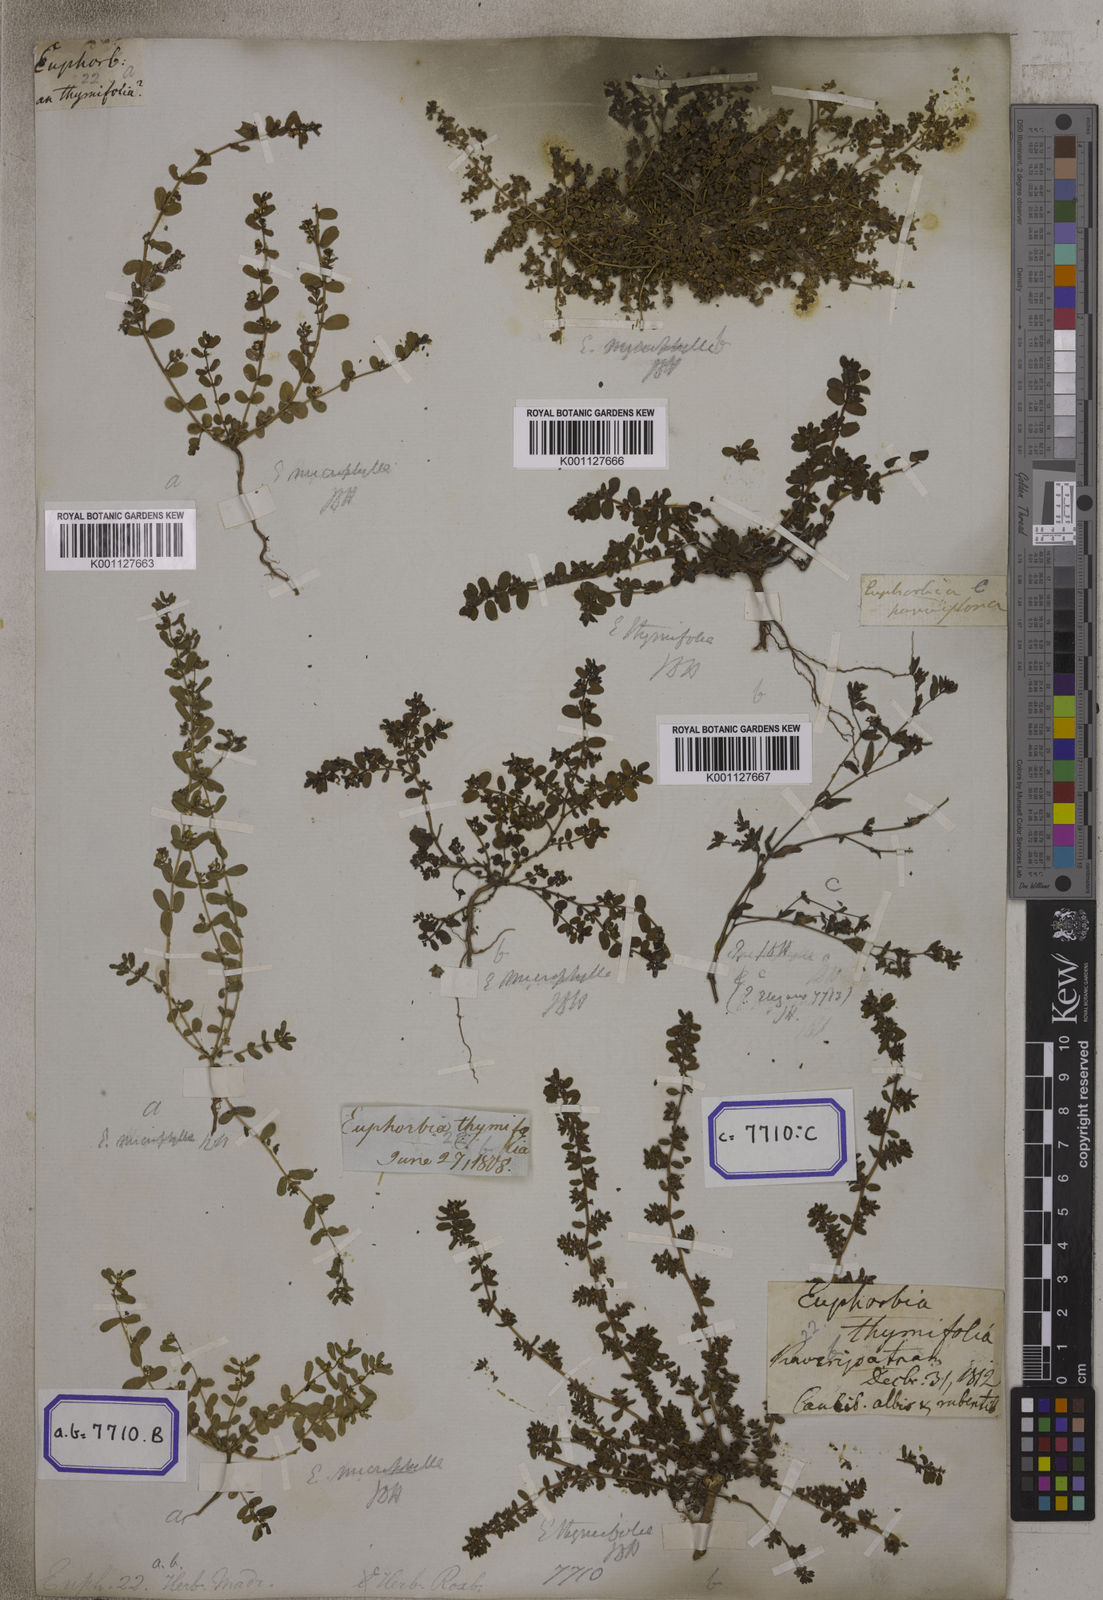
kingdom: Plantae
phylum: Tracheophyta
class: Magnoliopsida
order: Malpighiales
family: Euphorbiaceae
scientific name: Euphorbiaceae
